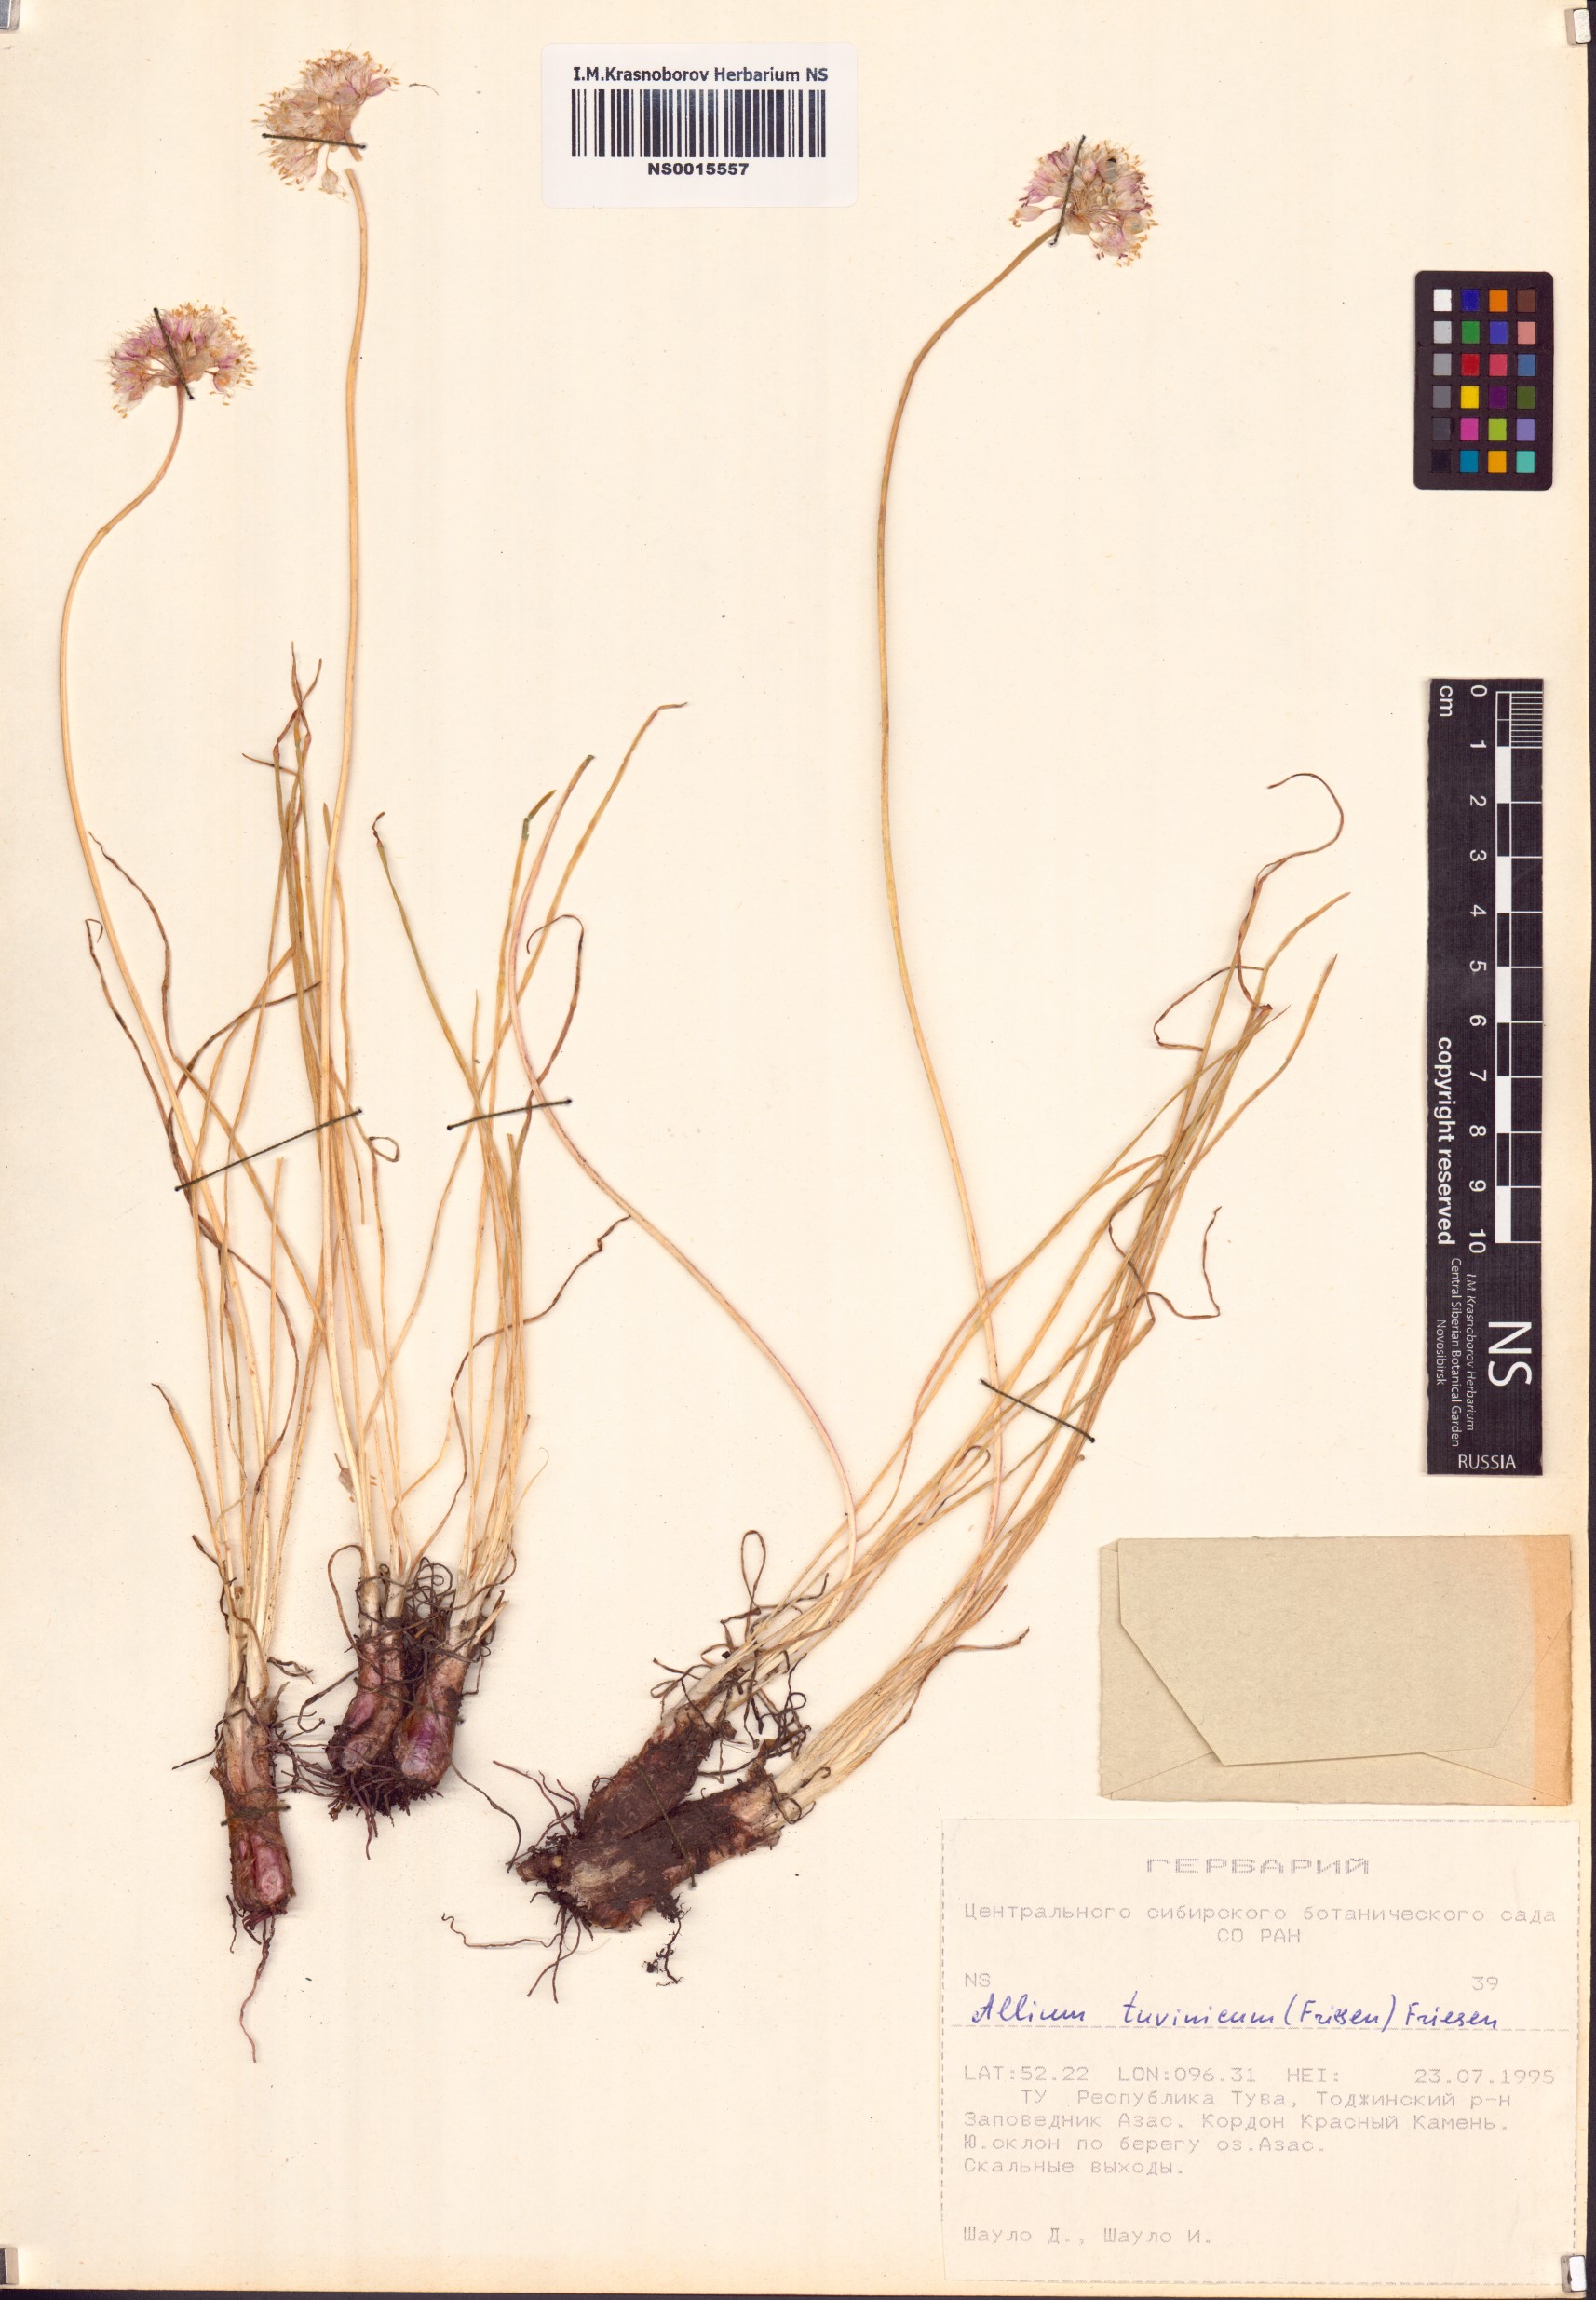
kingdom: Plantae
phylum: Tracheophyta
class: Liliopsida
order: Asparagales
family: Amaryllidaceae
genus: Allium
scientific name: Allium tuvinicum
